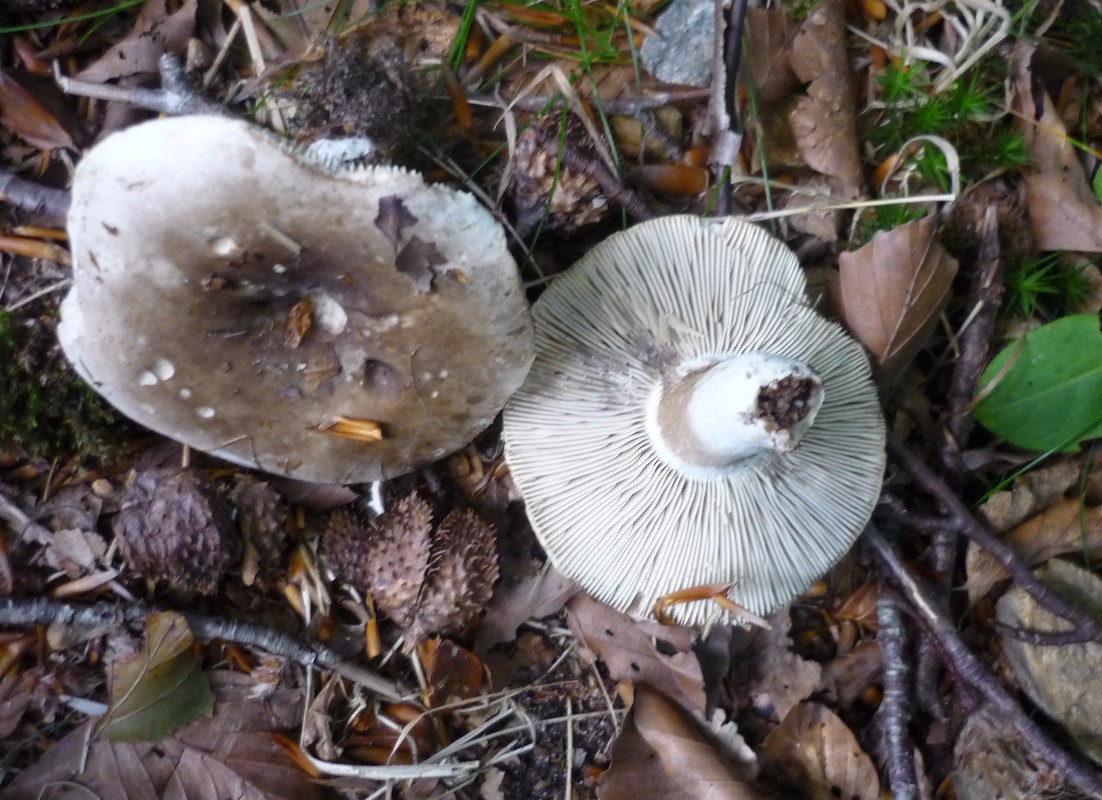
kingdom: Fungi
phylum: Basidiomycota
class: Agaricomycetes
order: Russulales
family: Russulaceae
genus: Russula
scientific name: Russula densifolia
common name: tætbladet skørhat
